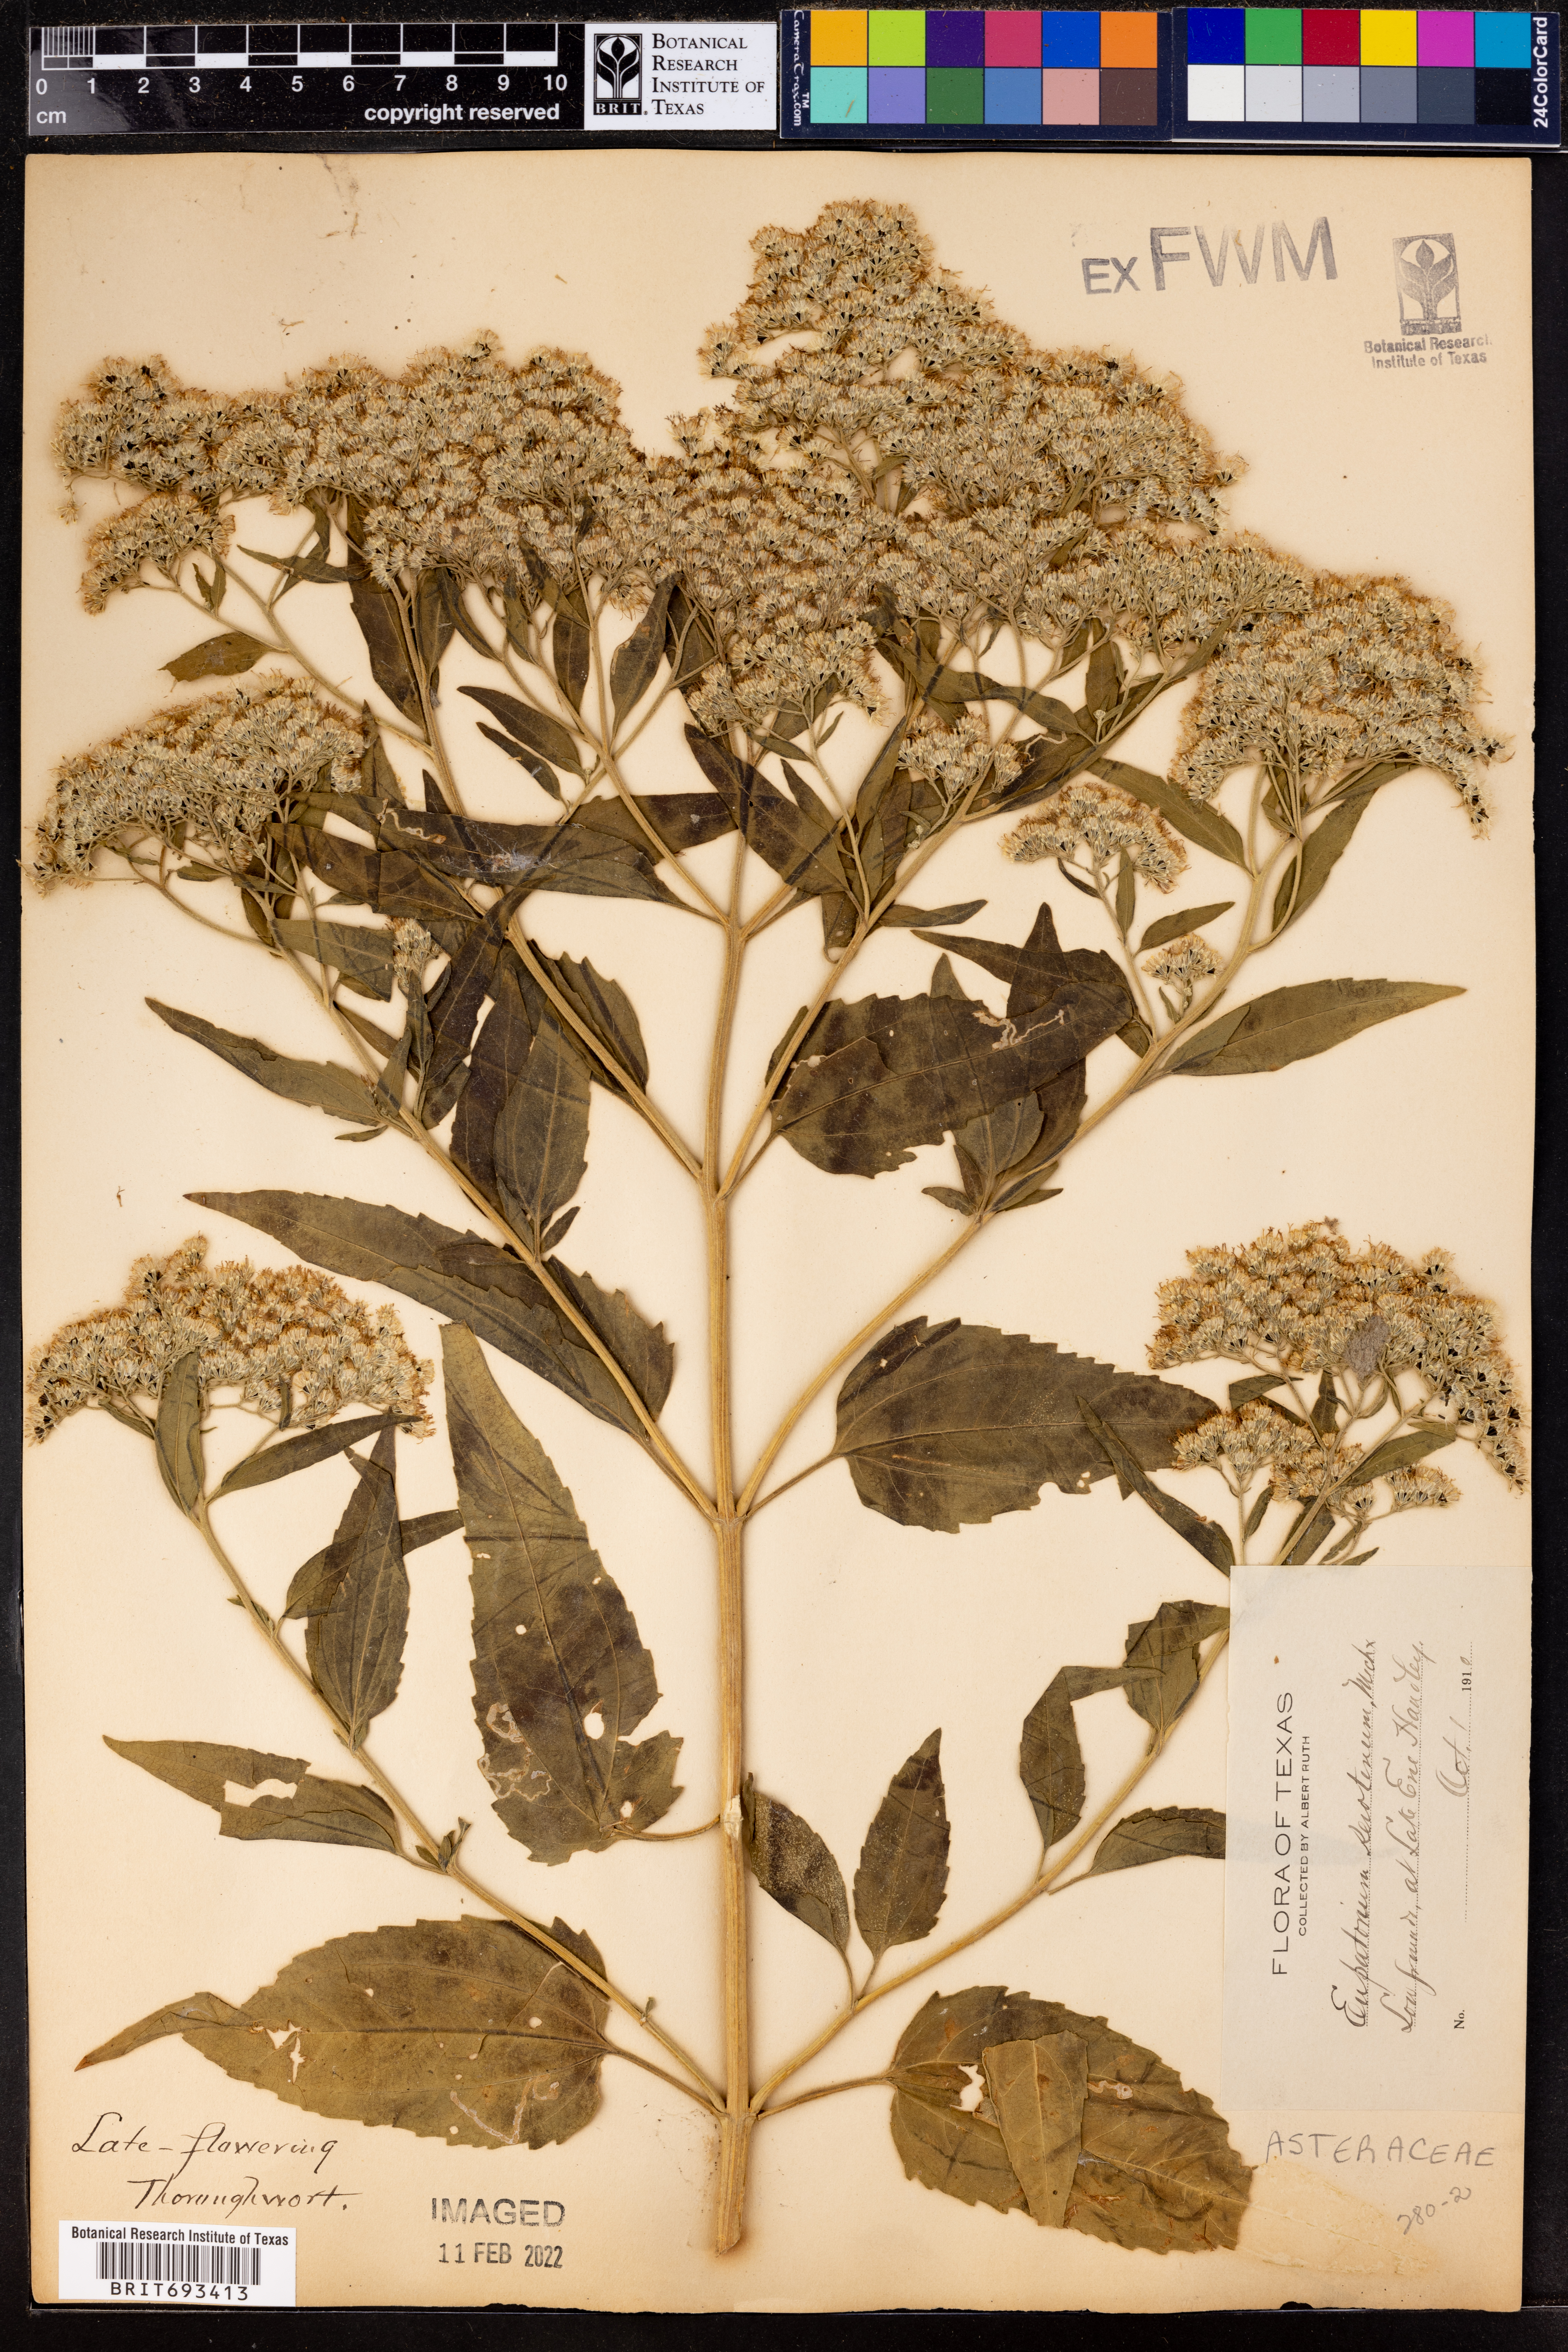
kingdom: Plantae
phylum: Tracheophyta
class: Magnoliopsida
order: Asterales
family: Asteraceae
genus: Eupatorium
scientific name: Eupatorium serotinum
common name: Late boneset
